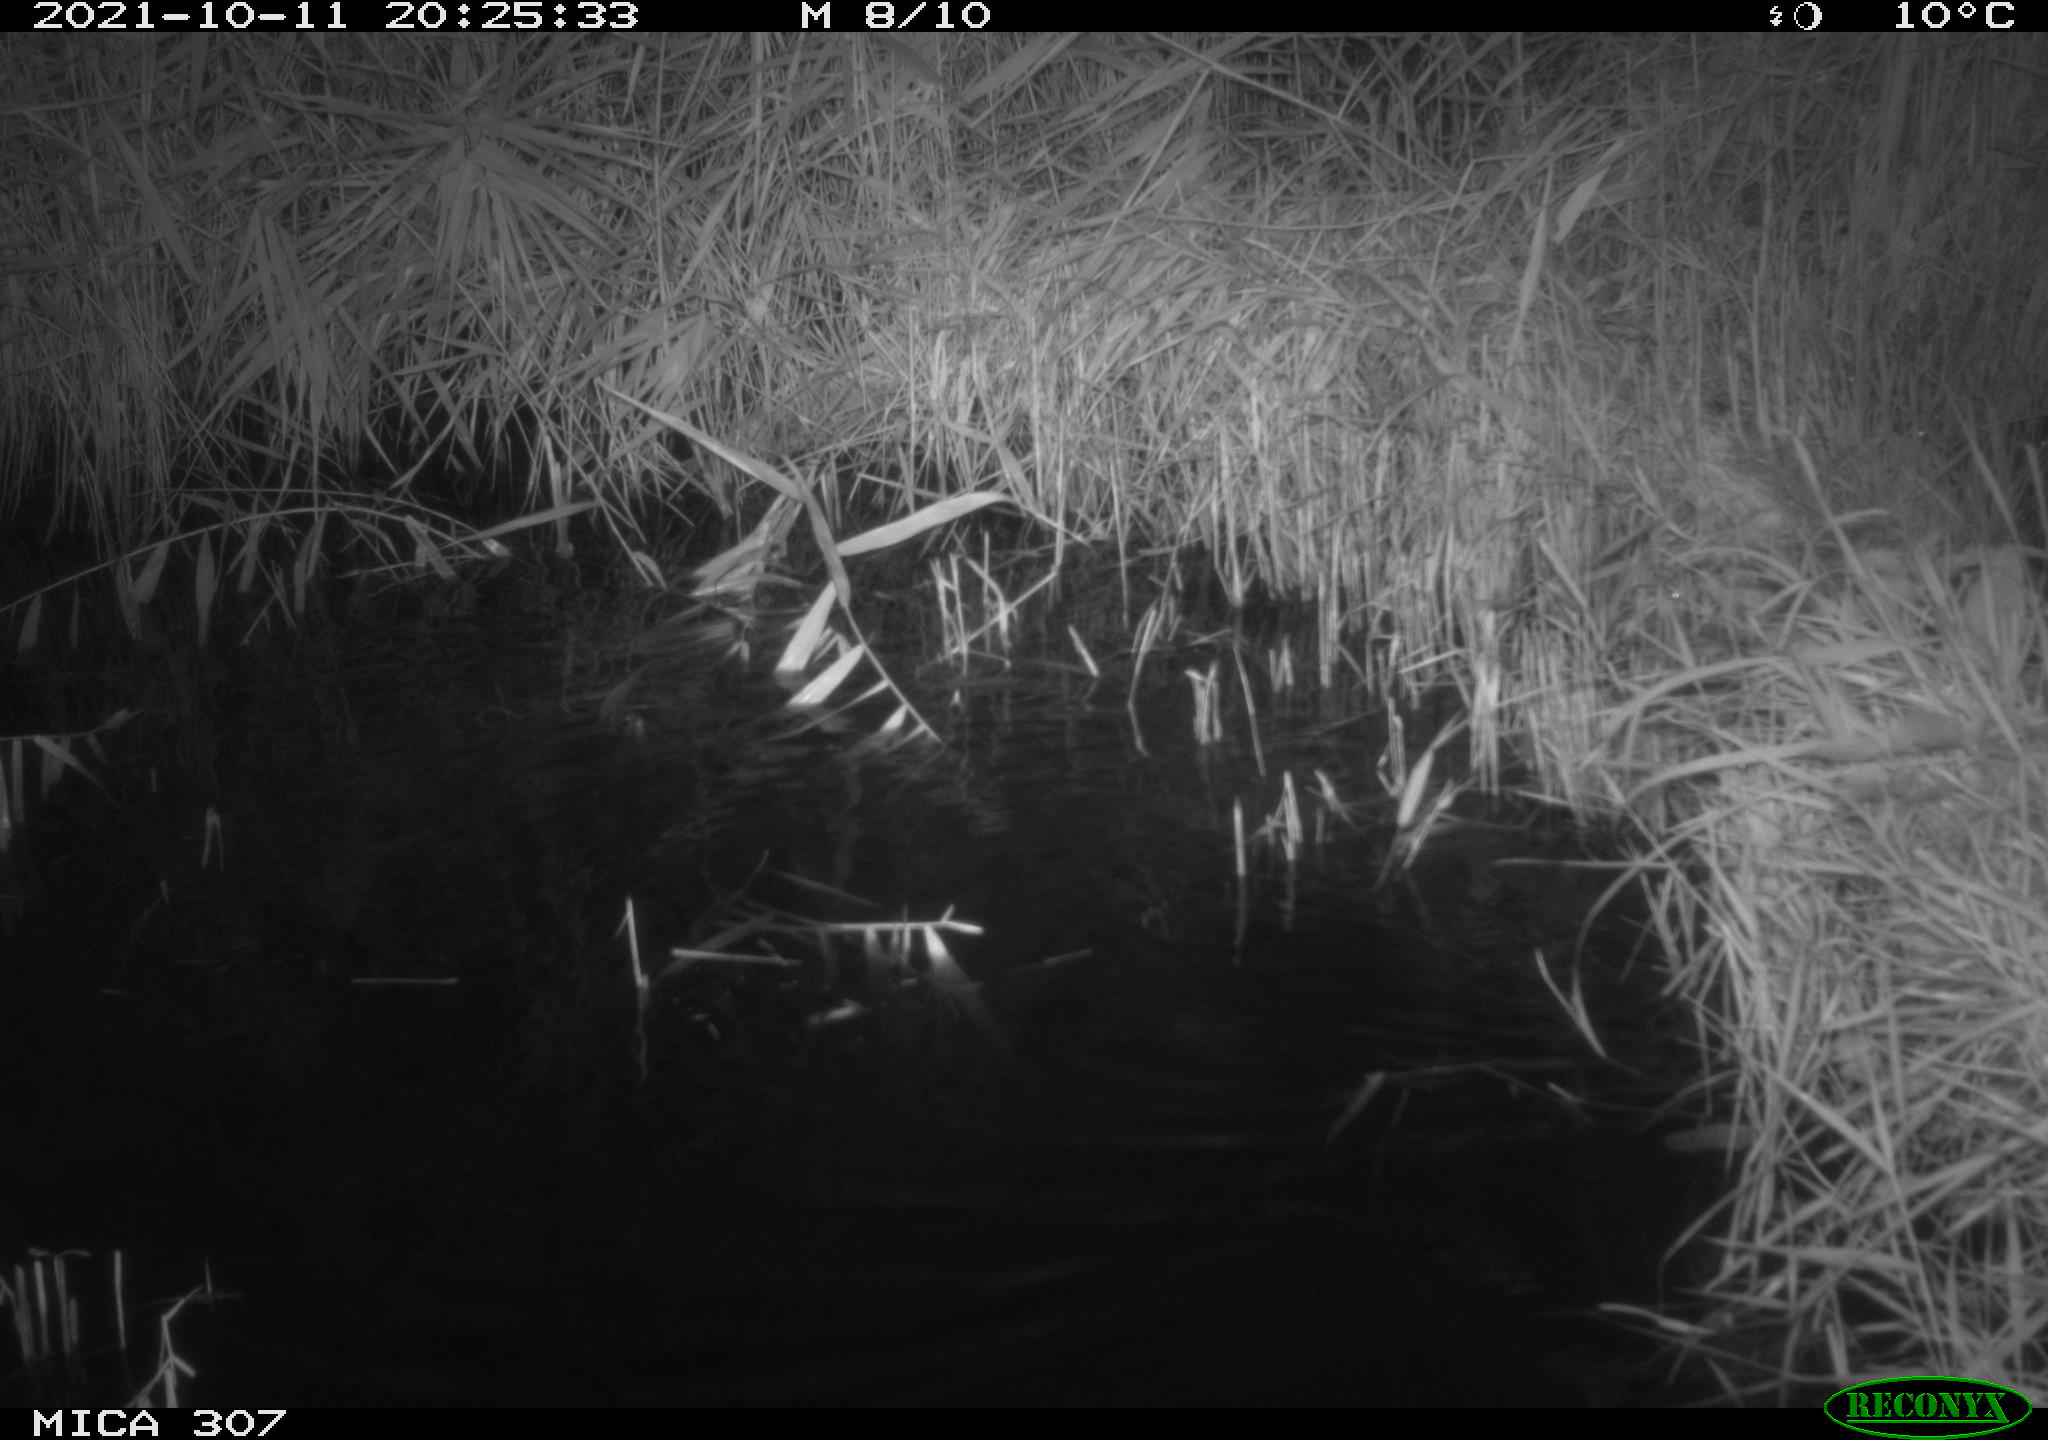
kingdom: Animalia
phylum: Chordata
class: Mammalia
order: Rodentia
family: Muridae
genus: Rattus
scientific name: Rattus norvegicus
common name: Brown rat
